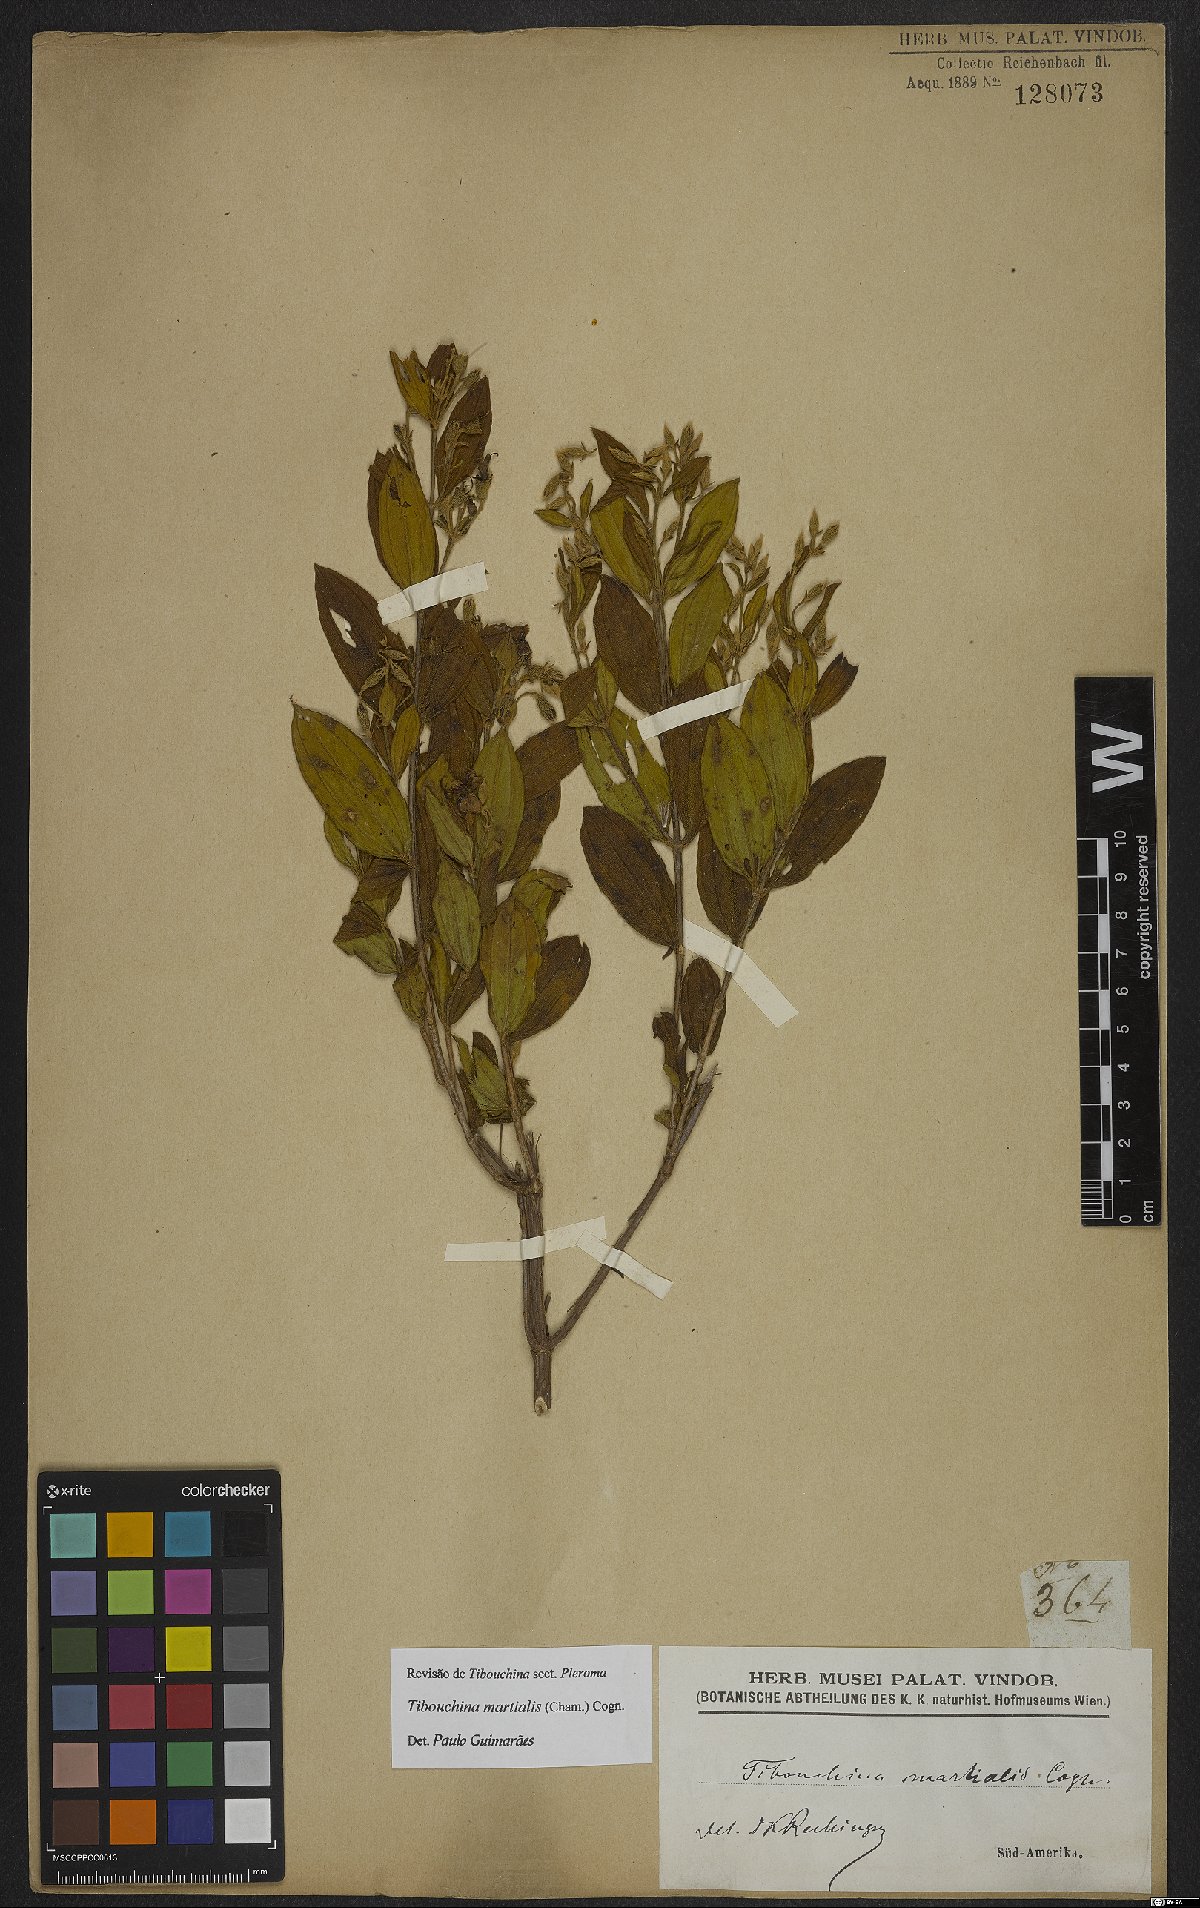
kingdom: Plantae
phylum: Tracheophyta
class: Magnoliopsida
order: Myrtales
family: Melastomataceae
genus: Pleroma
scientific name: Pleroma martiale
